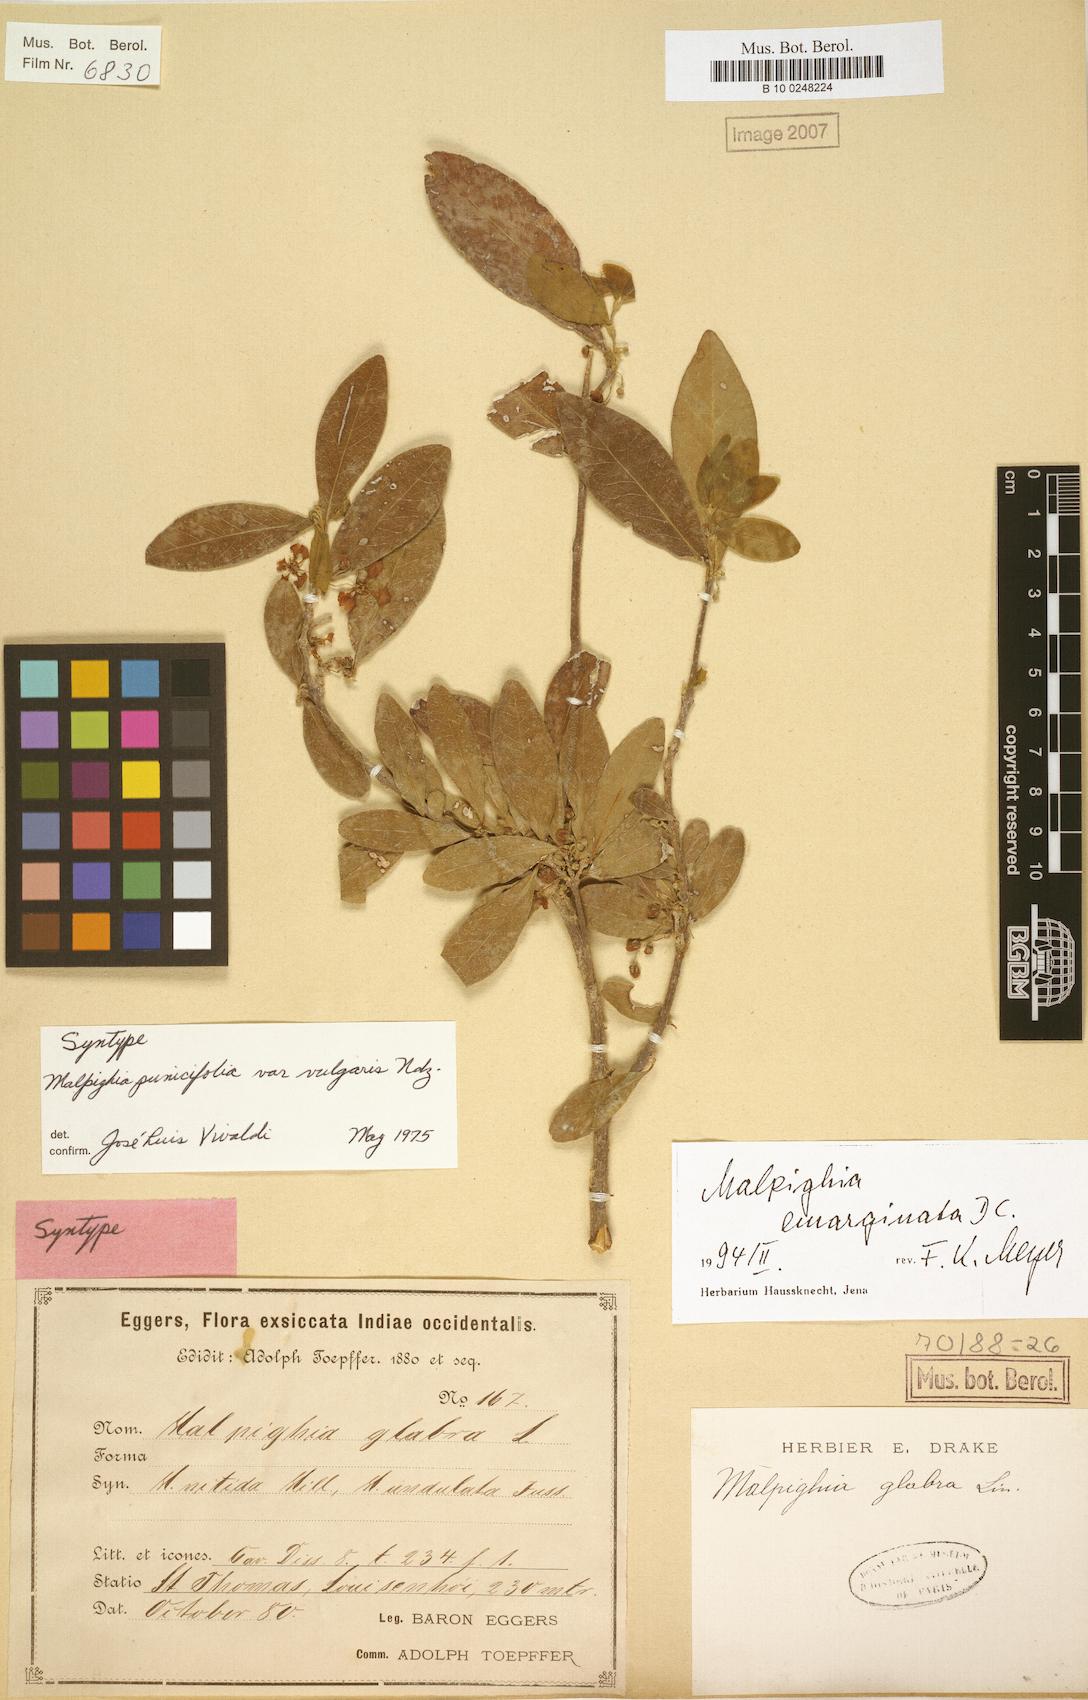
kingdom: Plantae
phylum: Tracheophyta
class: Magnoliopsida
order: Malpighiales
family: Malpighiaceae
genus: Malpighia
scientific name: Malpighia emarginata
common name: Barbados cherry
